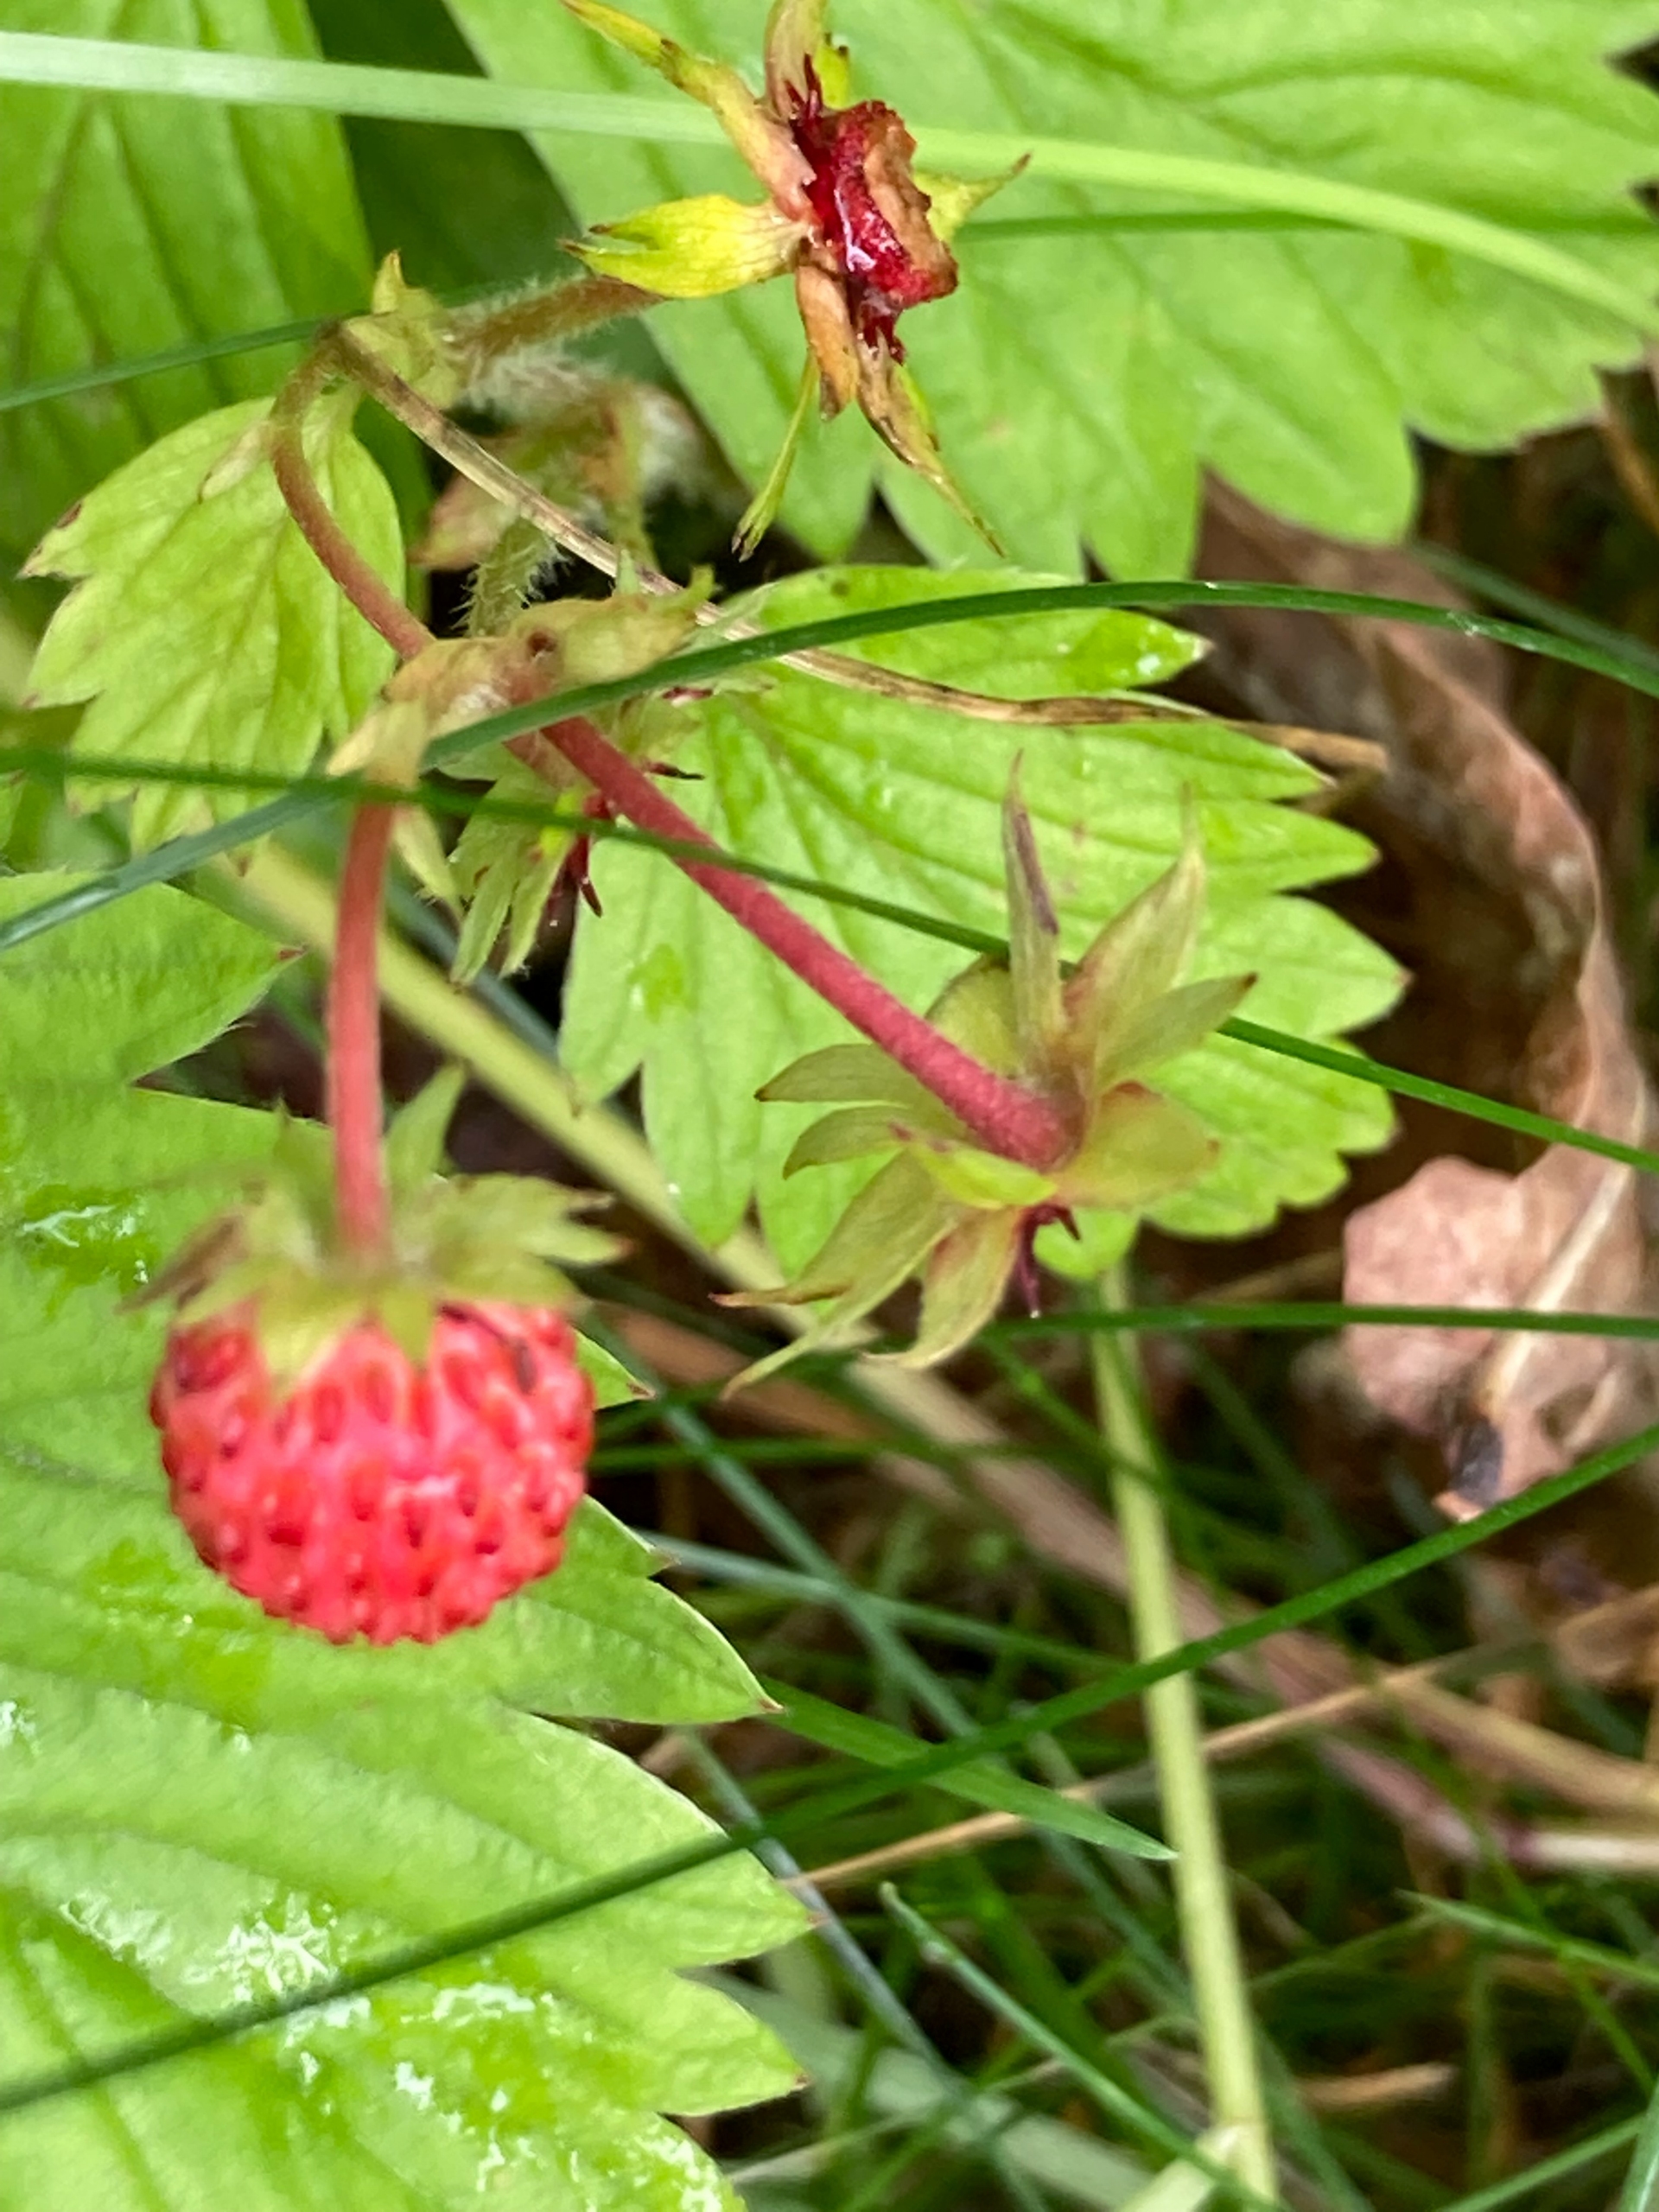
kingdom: Plantae
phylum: Tracheophyta
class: Magnoliopsida
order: Rosales
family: Rosaceae
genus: Fragaria
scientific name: Fragaria vesca
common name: Skov-jordbær
